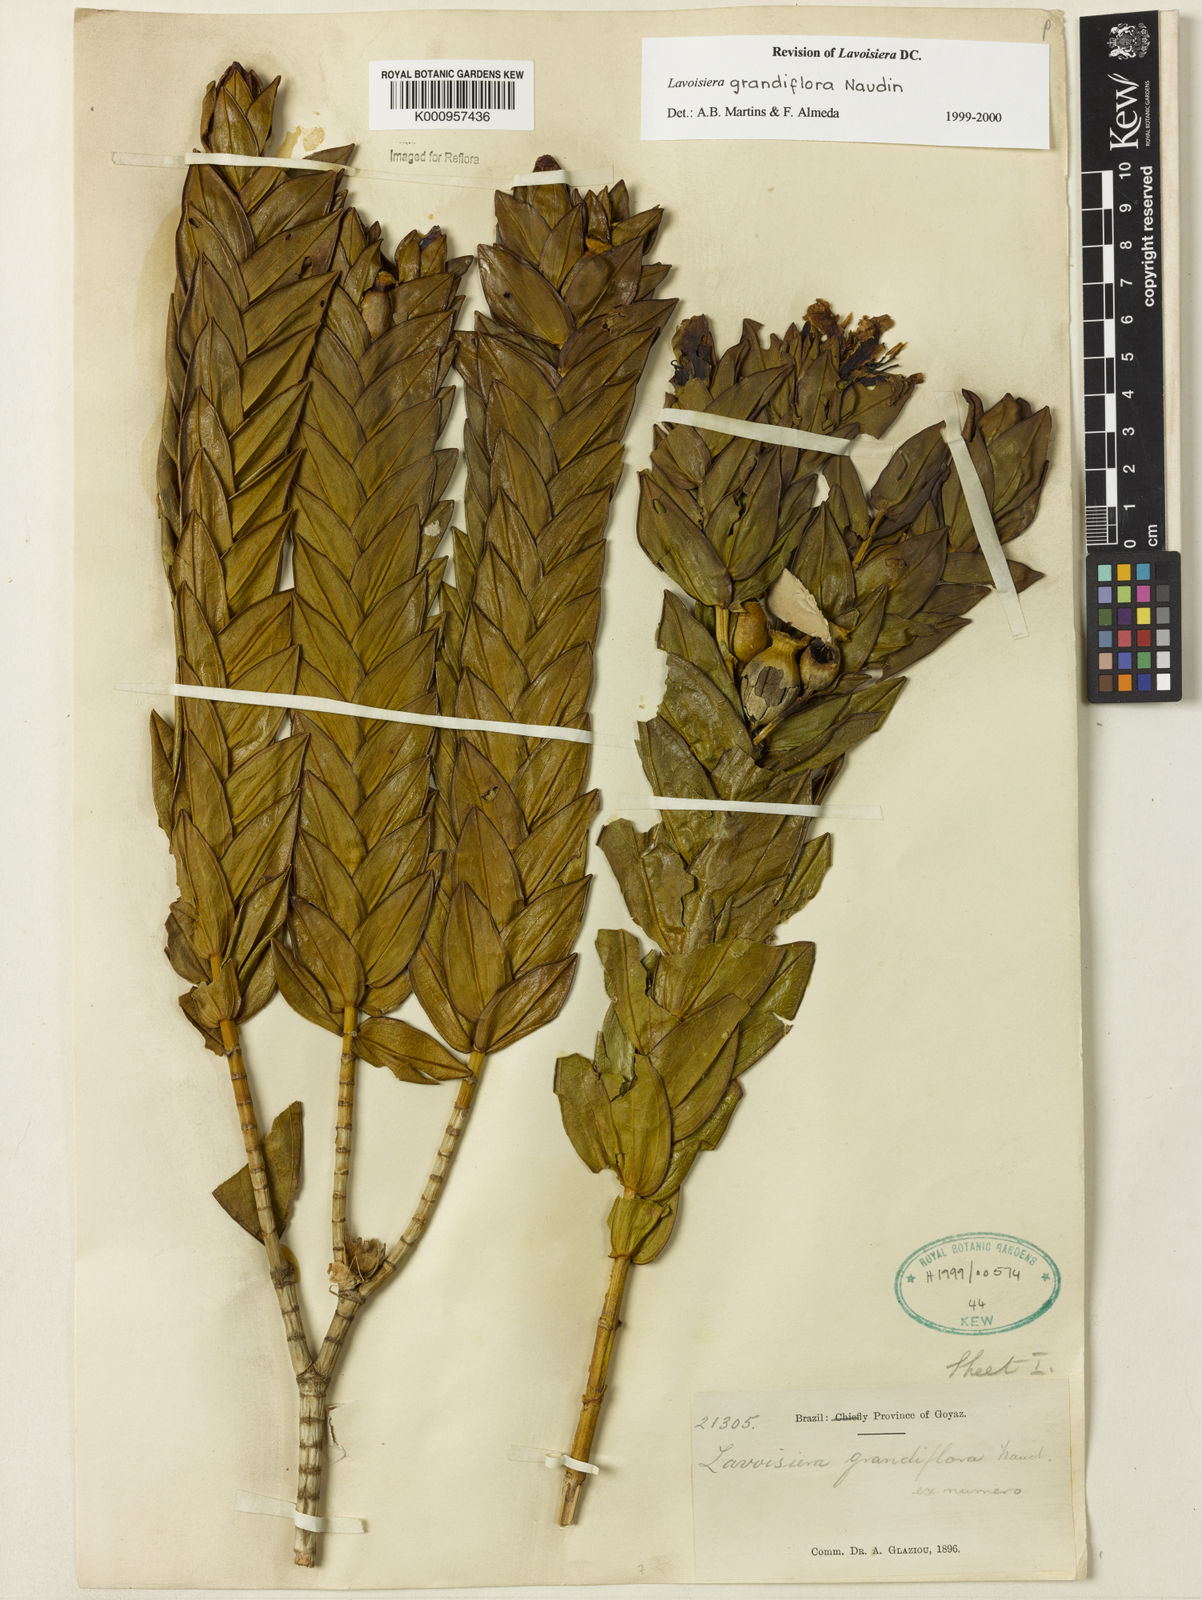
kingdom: Plantae
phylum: Tracheophyta
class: Magnoliopsida
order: Myrtales
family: Melastomataceae
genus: Microlicia
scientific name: Microlicia macrantha
